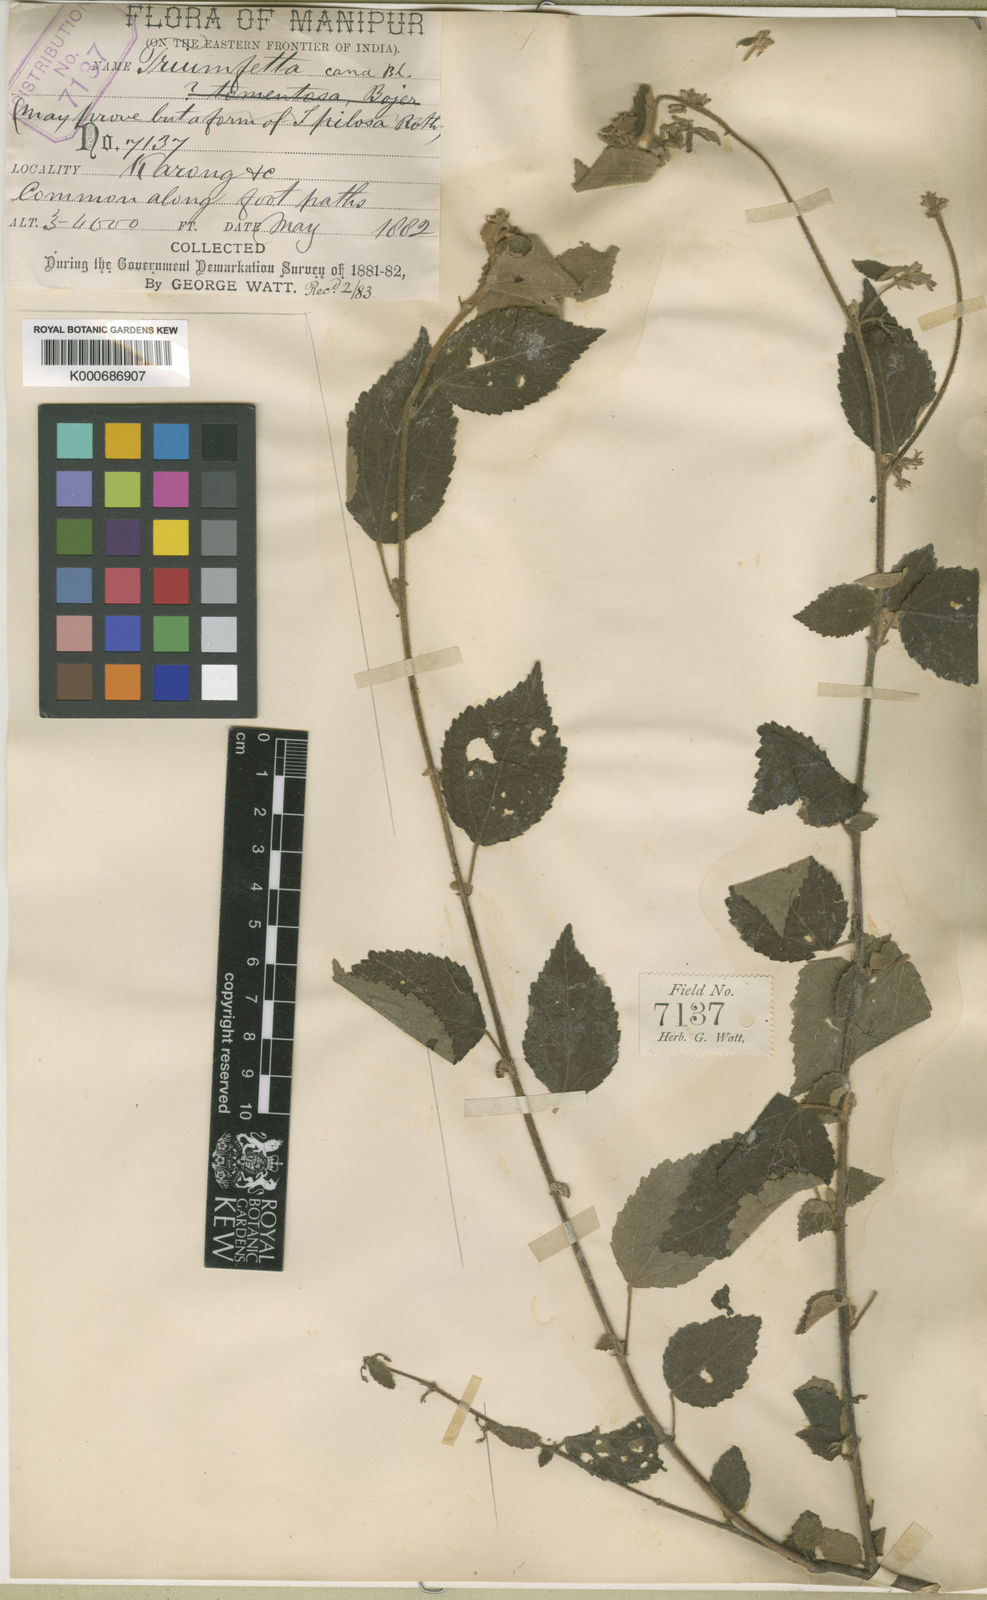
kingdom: Plantae
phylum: Tracheophyta
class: Magnoliopsida
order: Malvales
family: Malvaceae
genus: Triumfetta
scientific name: Triumfetta obliqua
